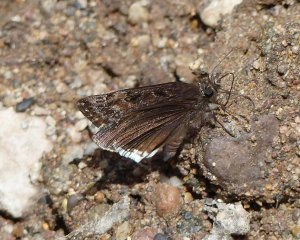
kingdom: Animalia
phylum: Arthropoda
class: Insecta
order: Lepidoptera
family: Hesperiidae
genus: Erynnis
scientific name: Erynnis tristis
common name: Mournful Duskywing
